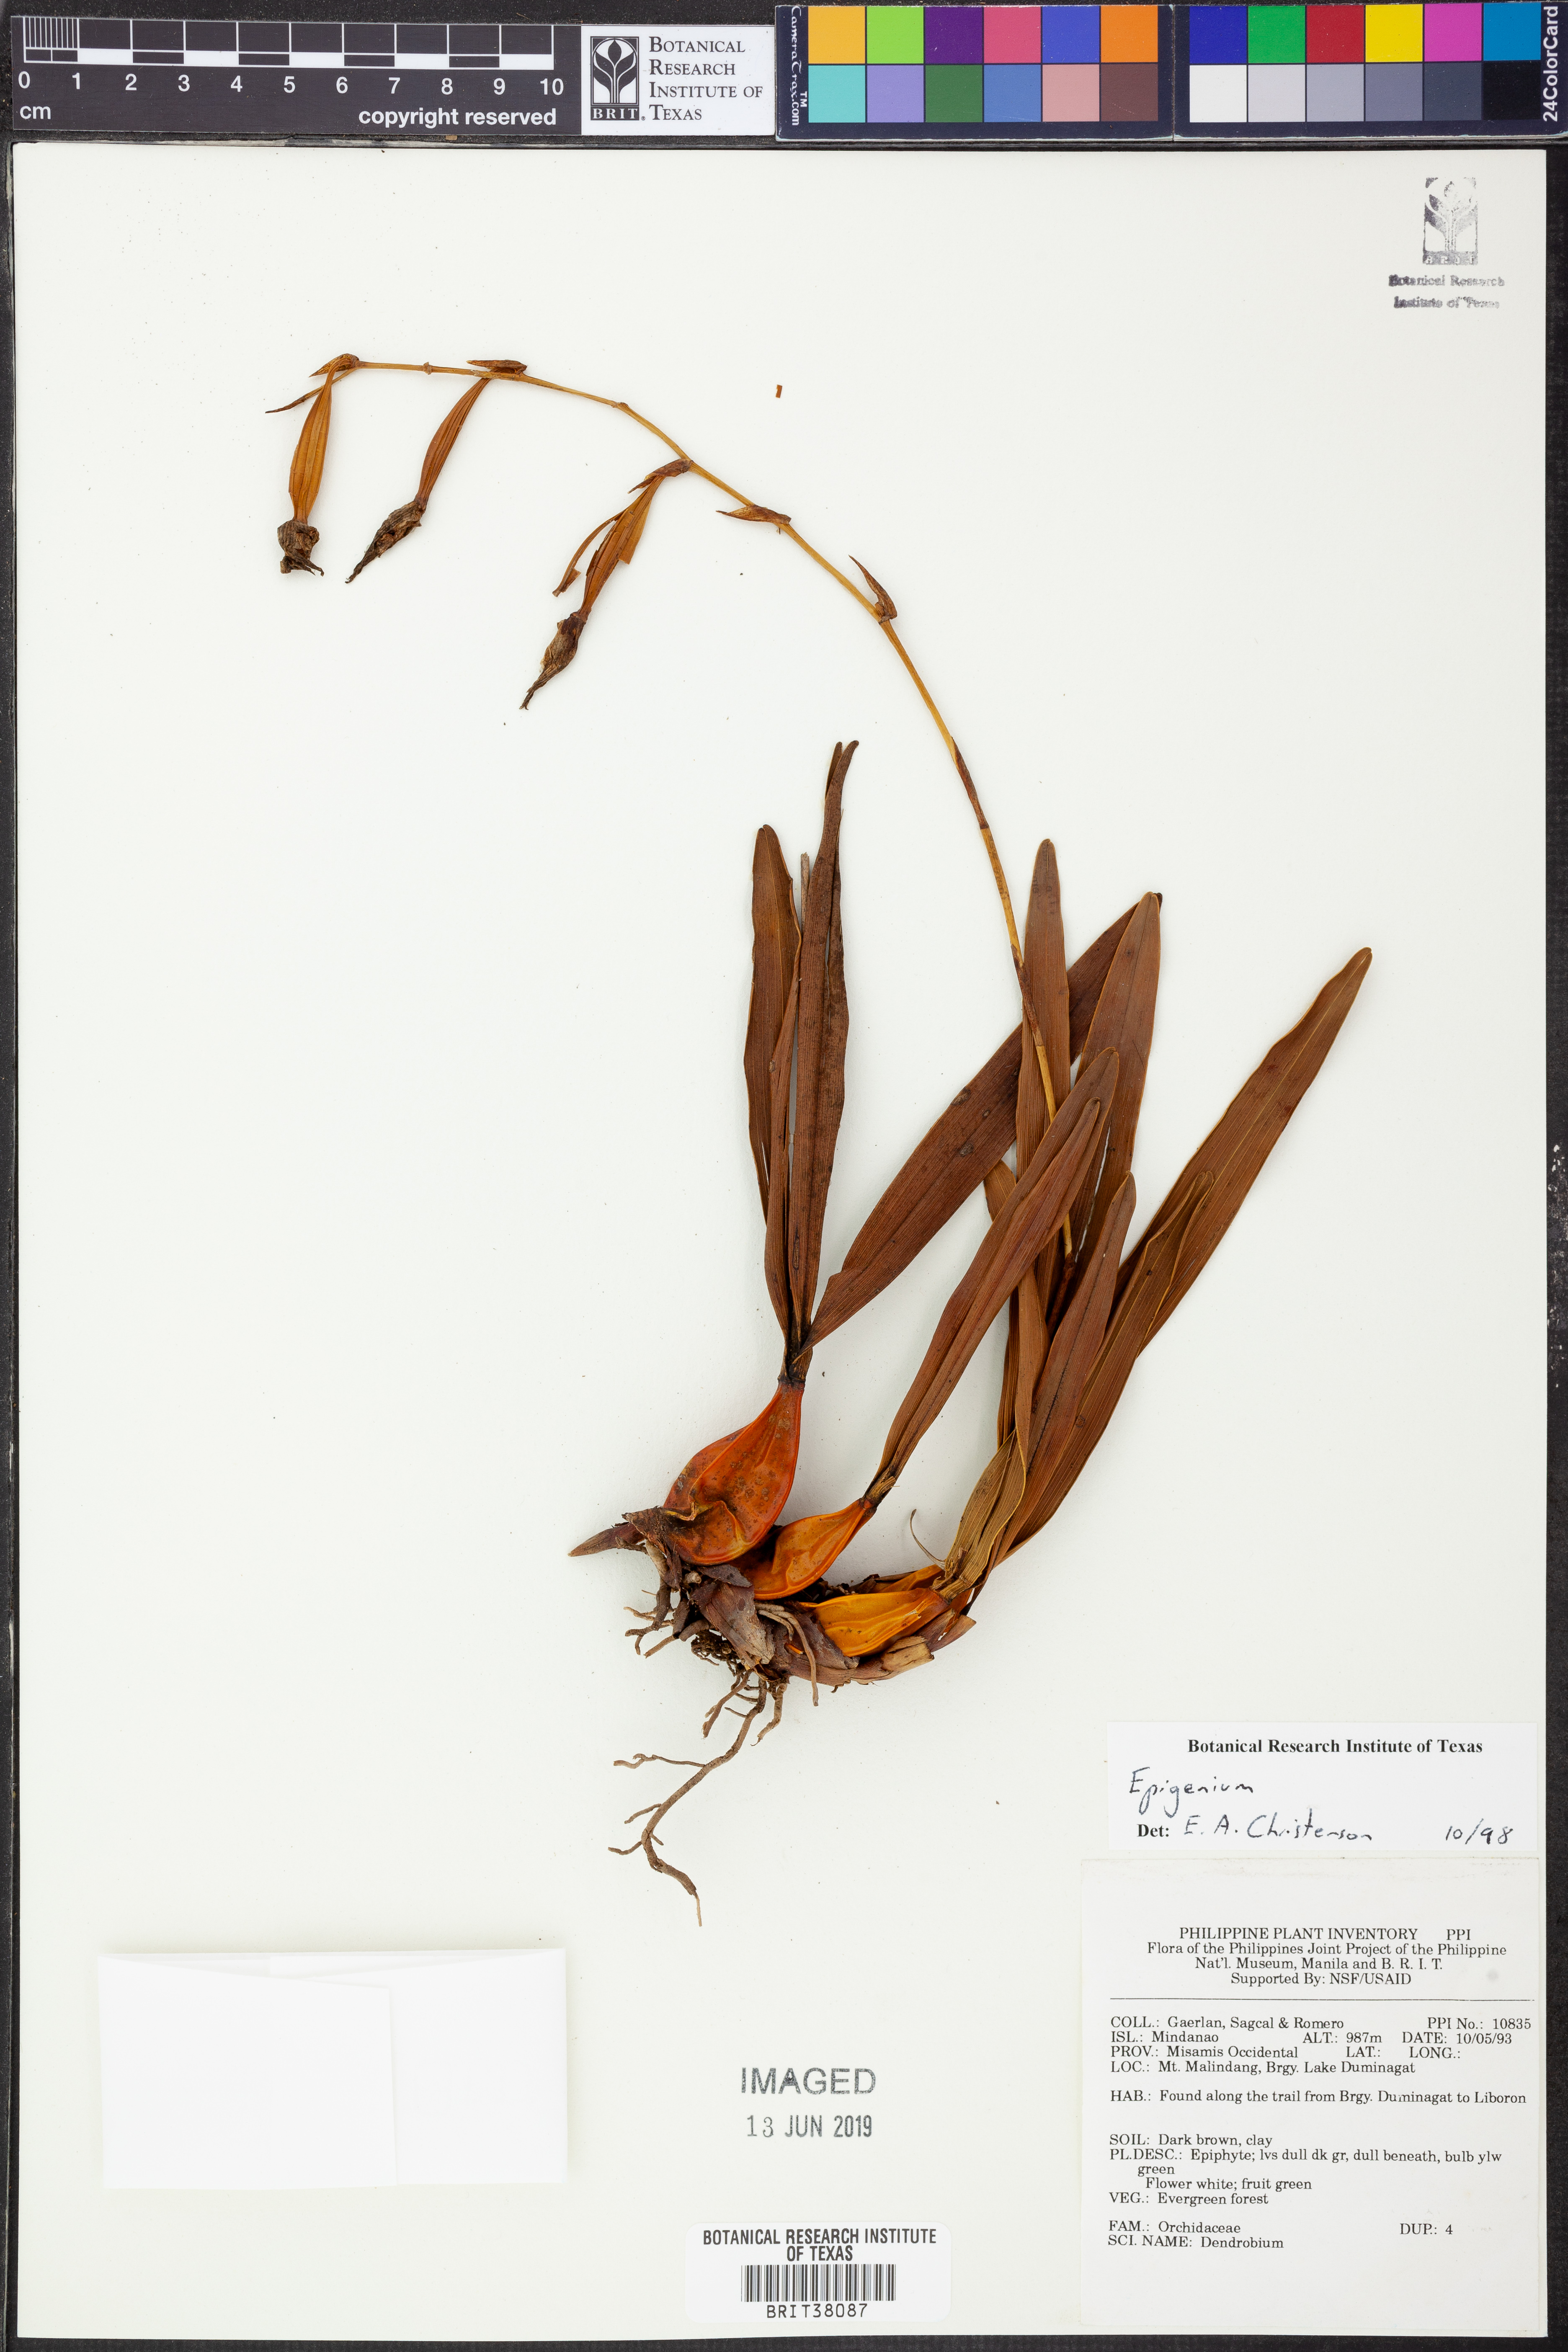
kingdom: Plantae
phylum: Tracheophyta
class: Liliopsida
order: Asparagales
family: Orchidaceae
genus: Dendrobium
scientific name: Dendrobium
